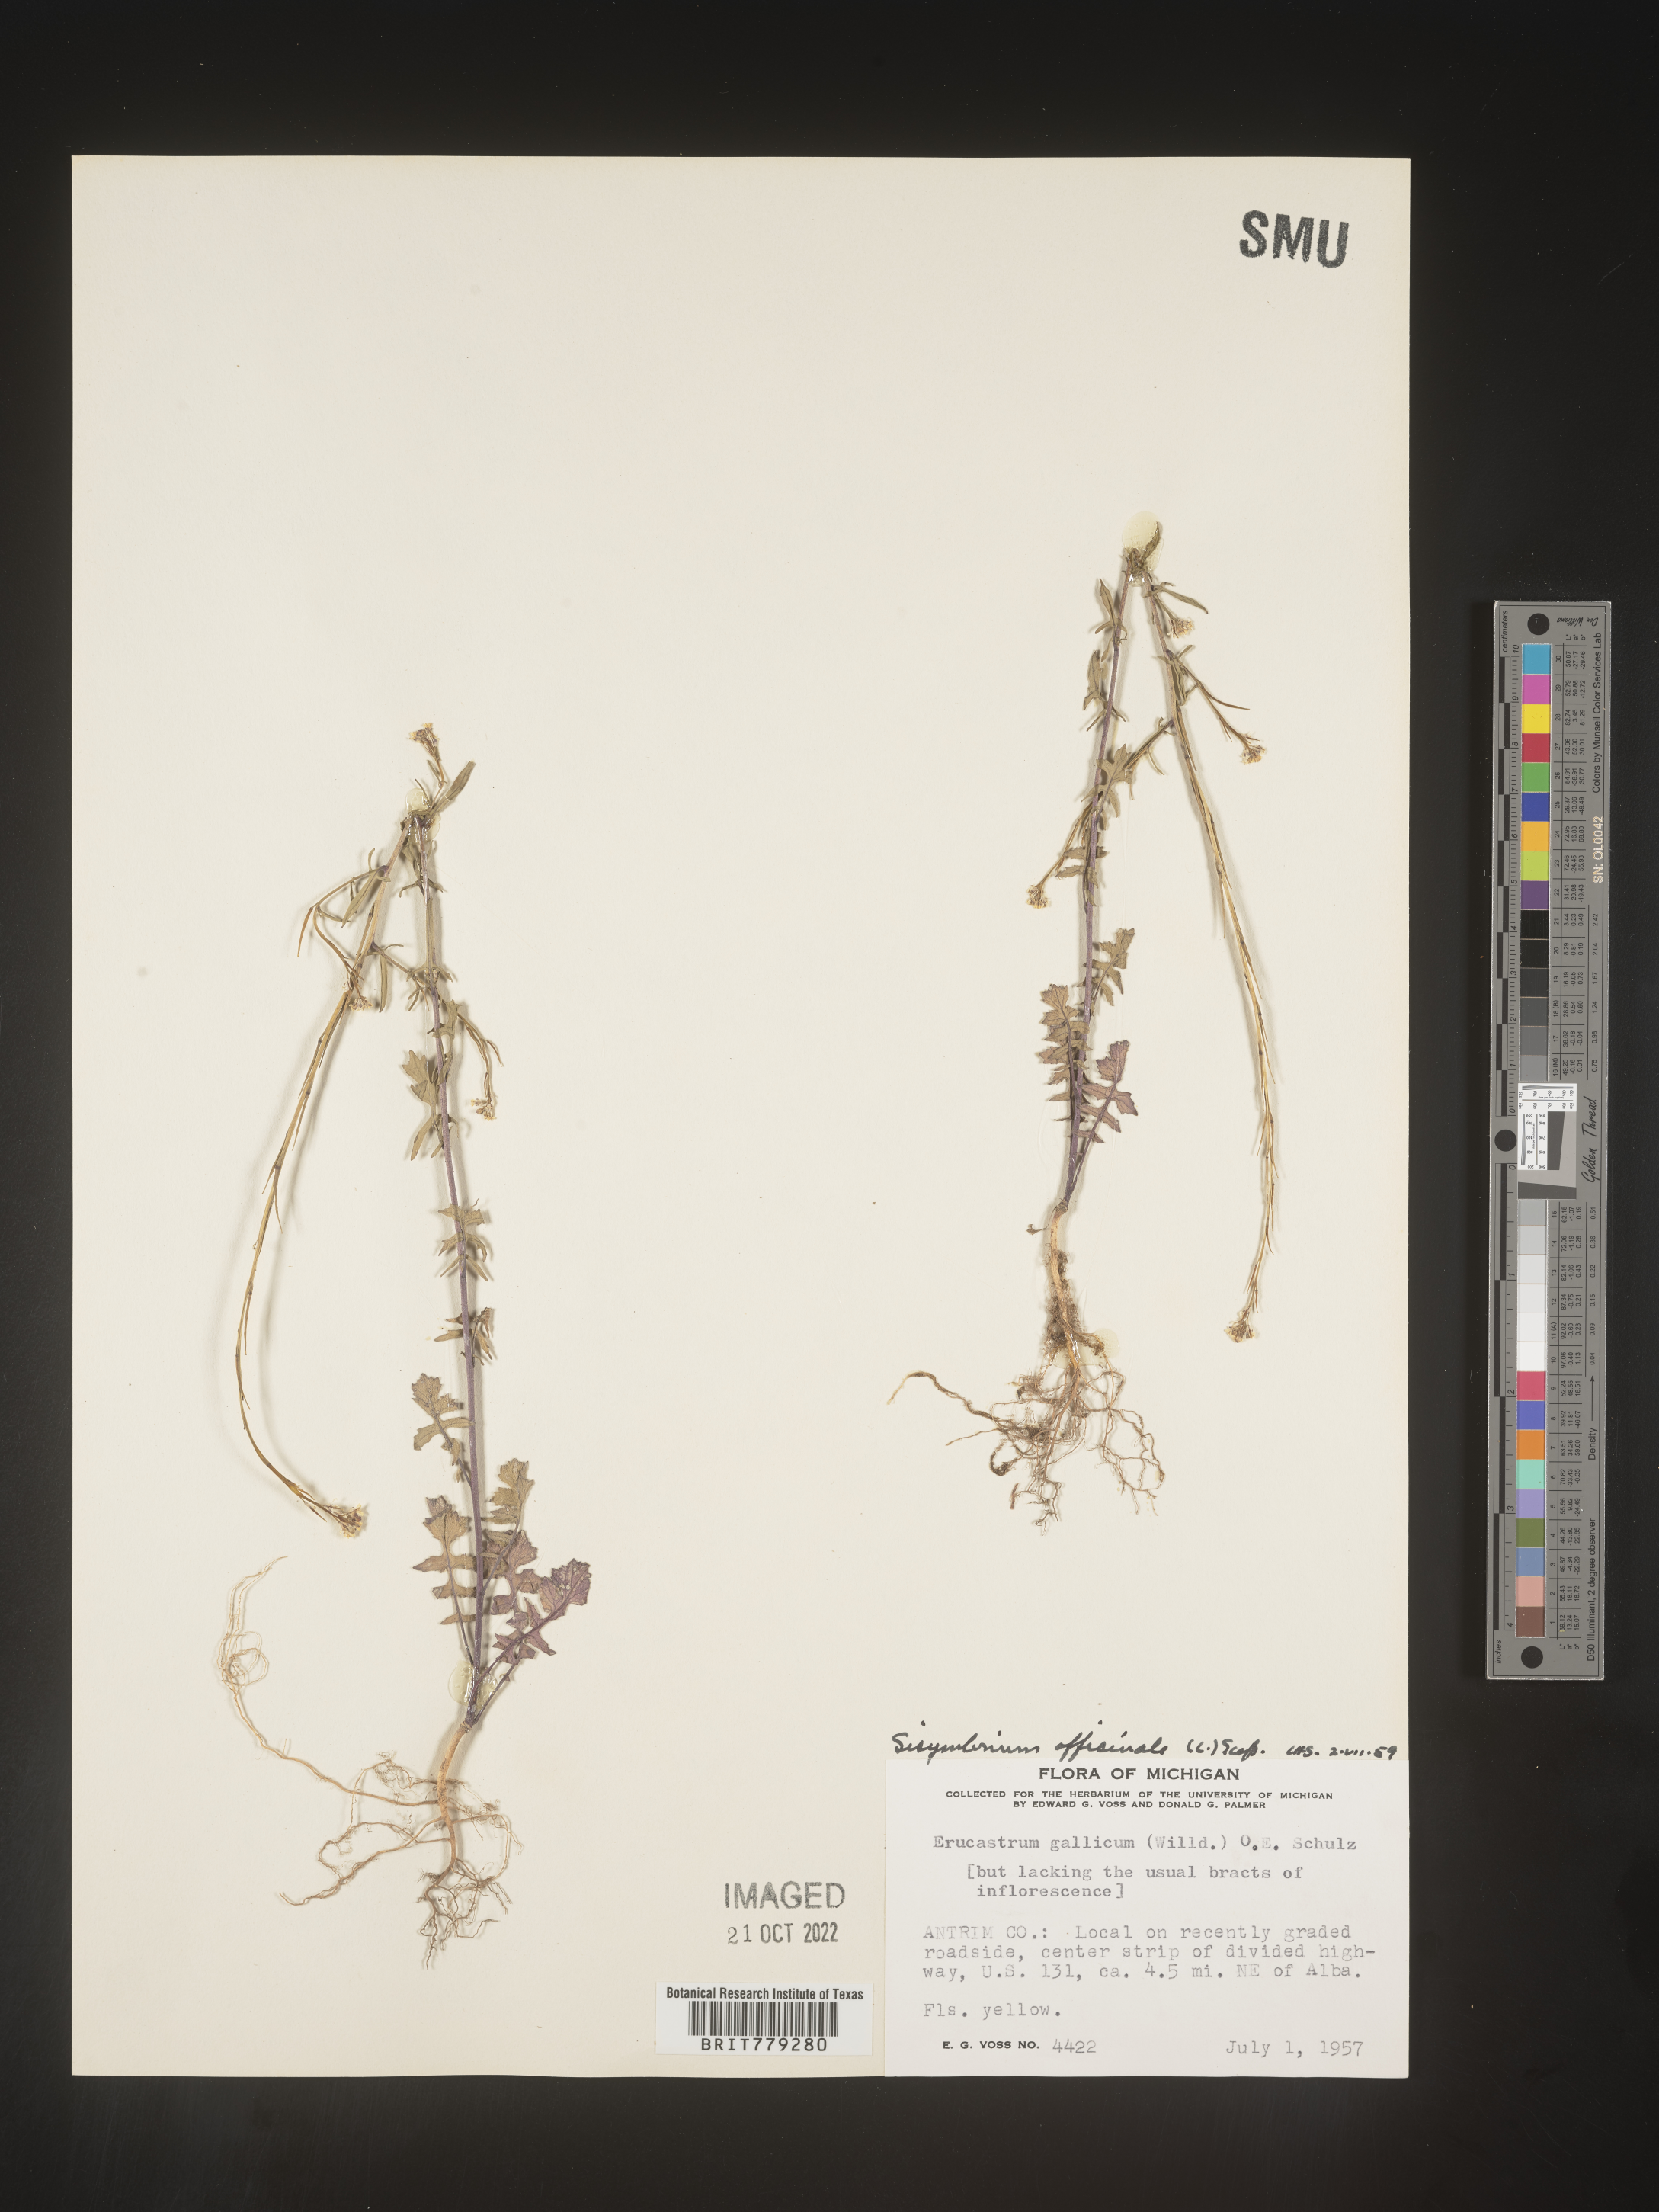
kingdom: Plantae
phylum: Tracheophyta
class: Magnoliopsida
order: Brassicales
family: Brassicaceae
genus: Sisymbrium
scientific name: Sisymbrium officinale
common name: Hedge mustard
